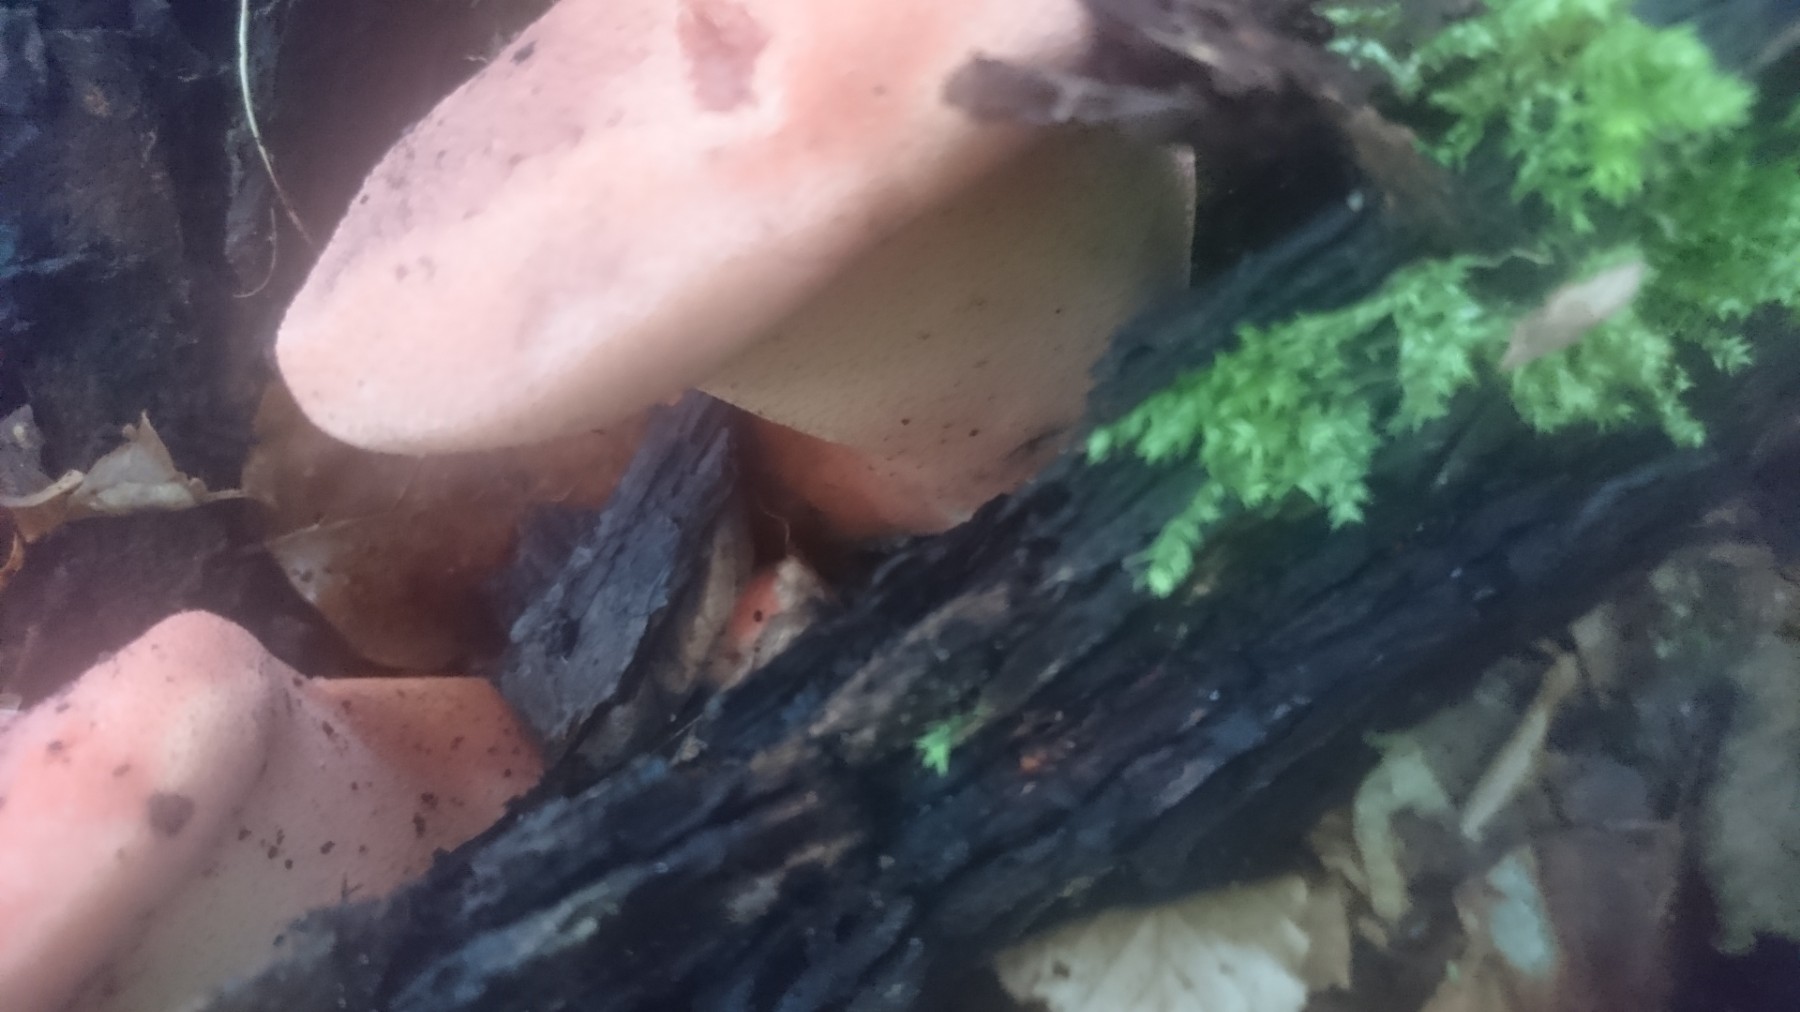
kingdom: Fungi
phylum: Basidiomycota
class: Agaricomycetes
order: Agaricales
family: Fistulinaceae
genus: Fistulina
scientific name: Fistulina hepatica
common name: oksetunge
